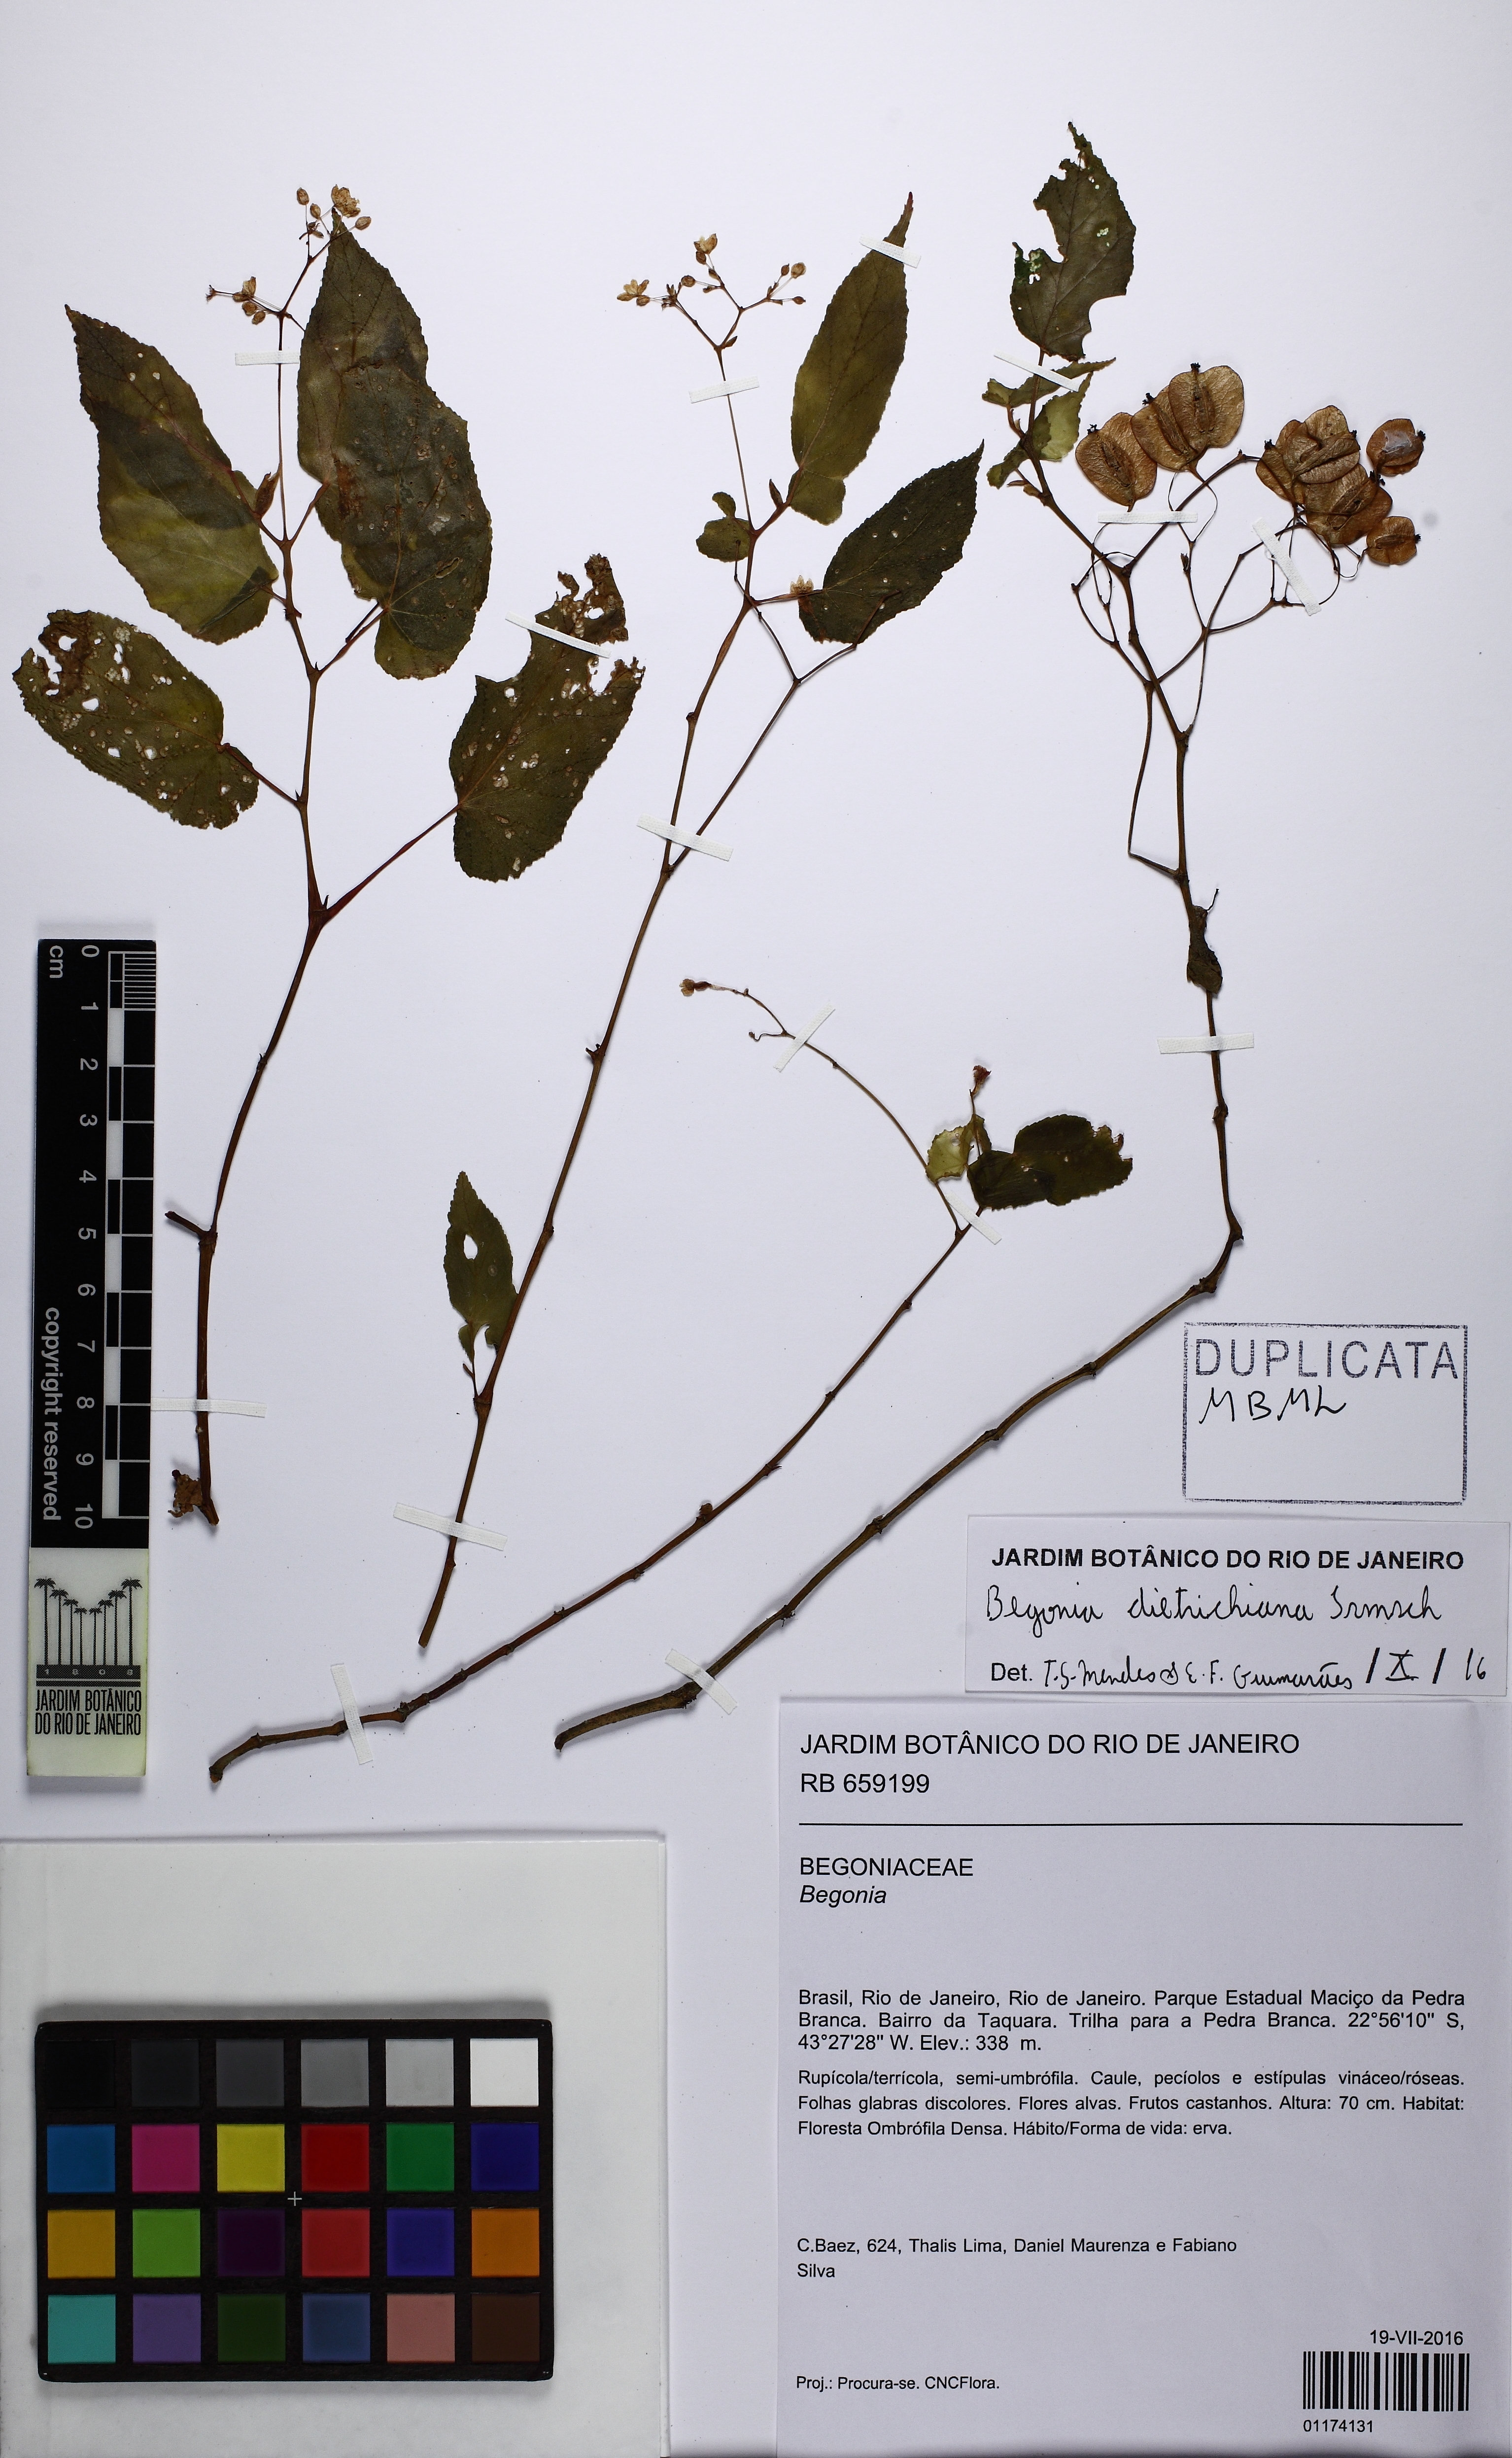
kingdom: Plantae
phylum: Tracheophyta
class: Magnoliopsida
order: Cucurbitales
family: Begoniaceae
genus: Begonia
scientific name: Begonia dietrichiana
